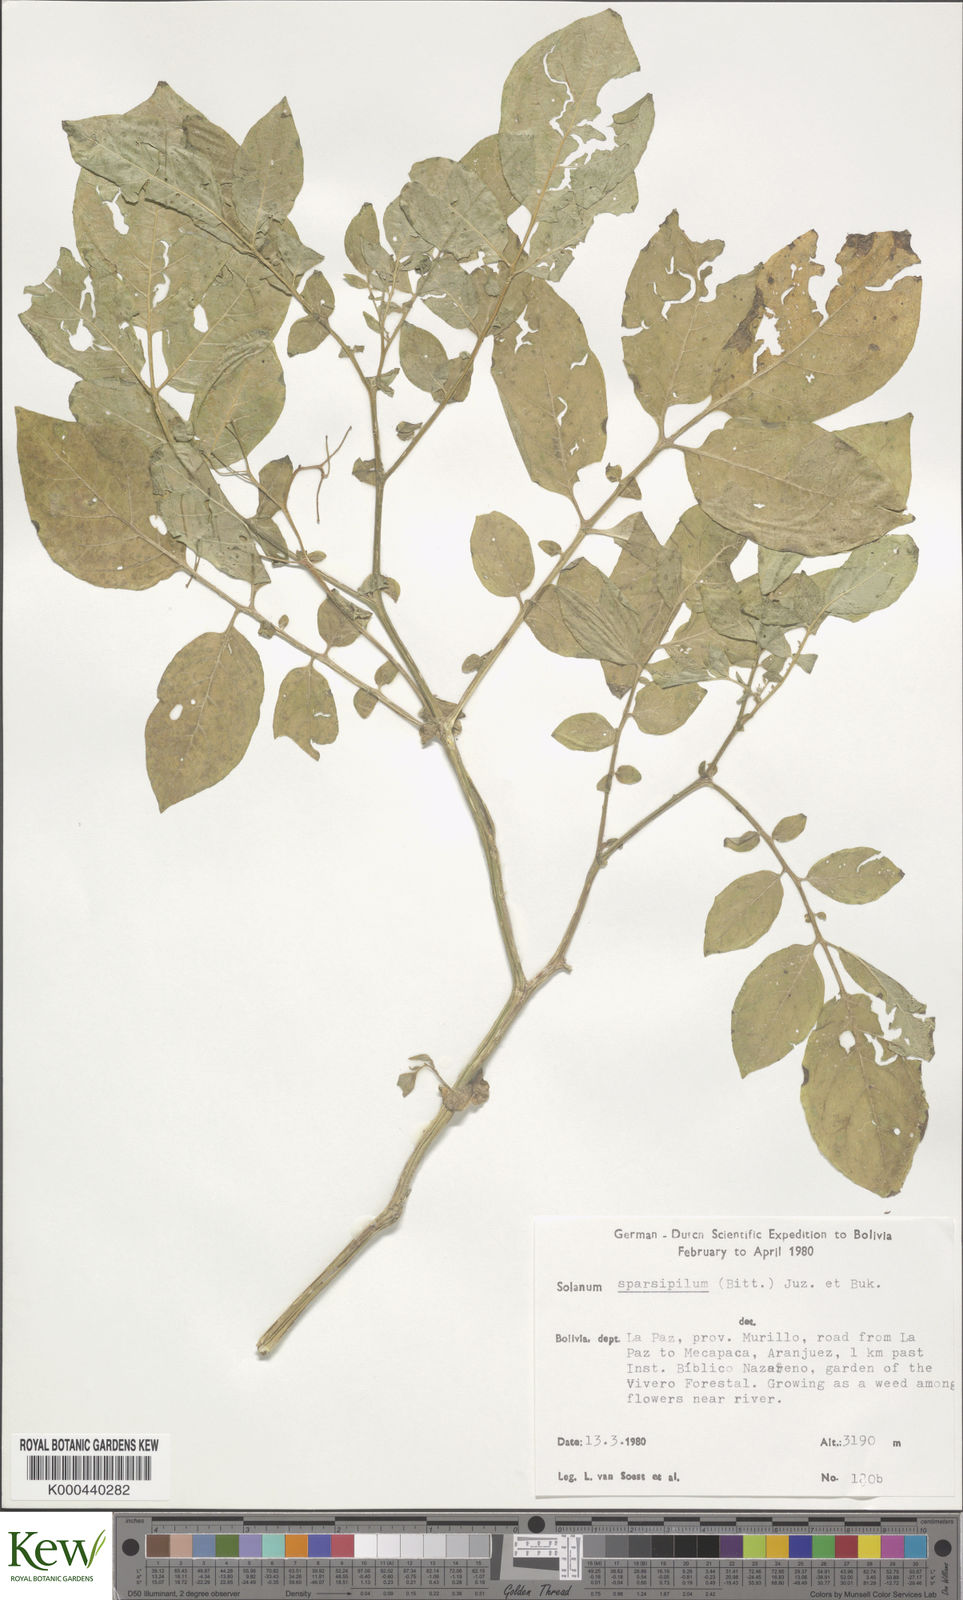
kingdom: Plantae
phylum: Tracheophyta
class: Magnoliopsida
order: Solanales
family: Solanaceae
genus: Solanum
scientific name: Solanum brevicaule
